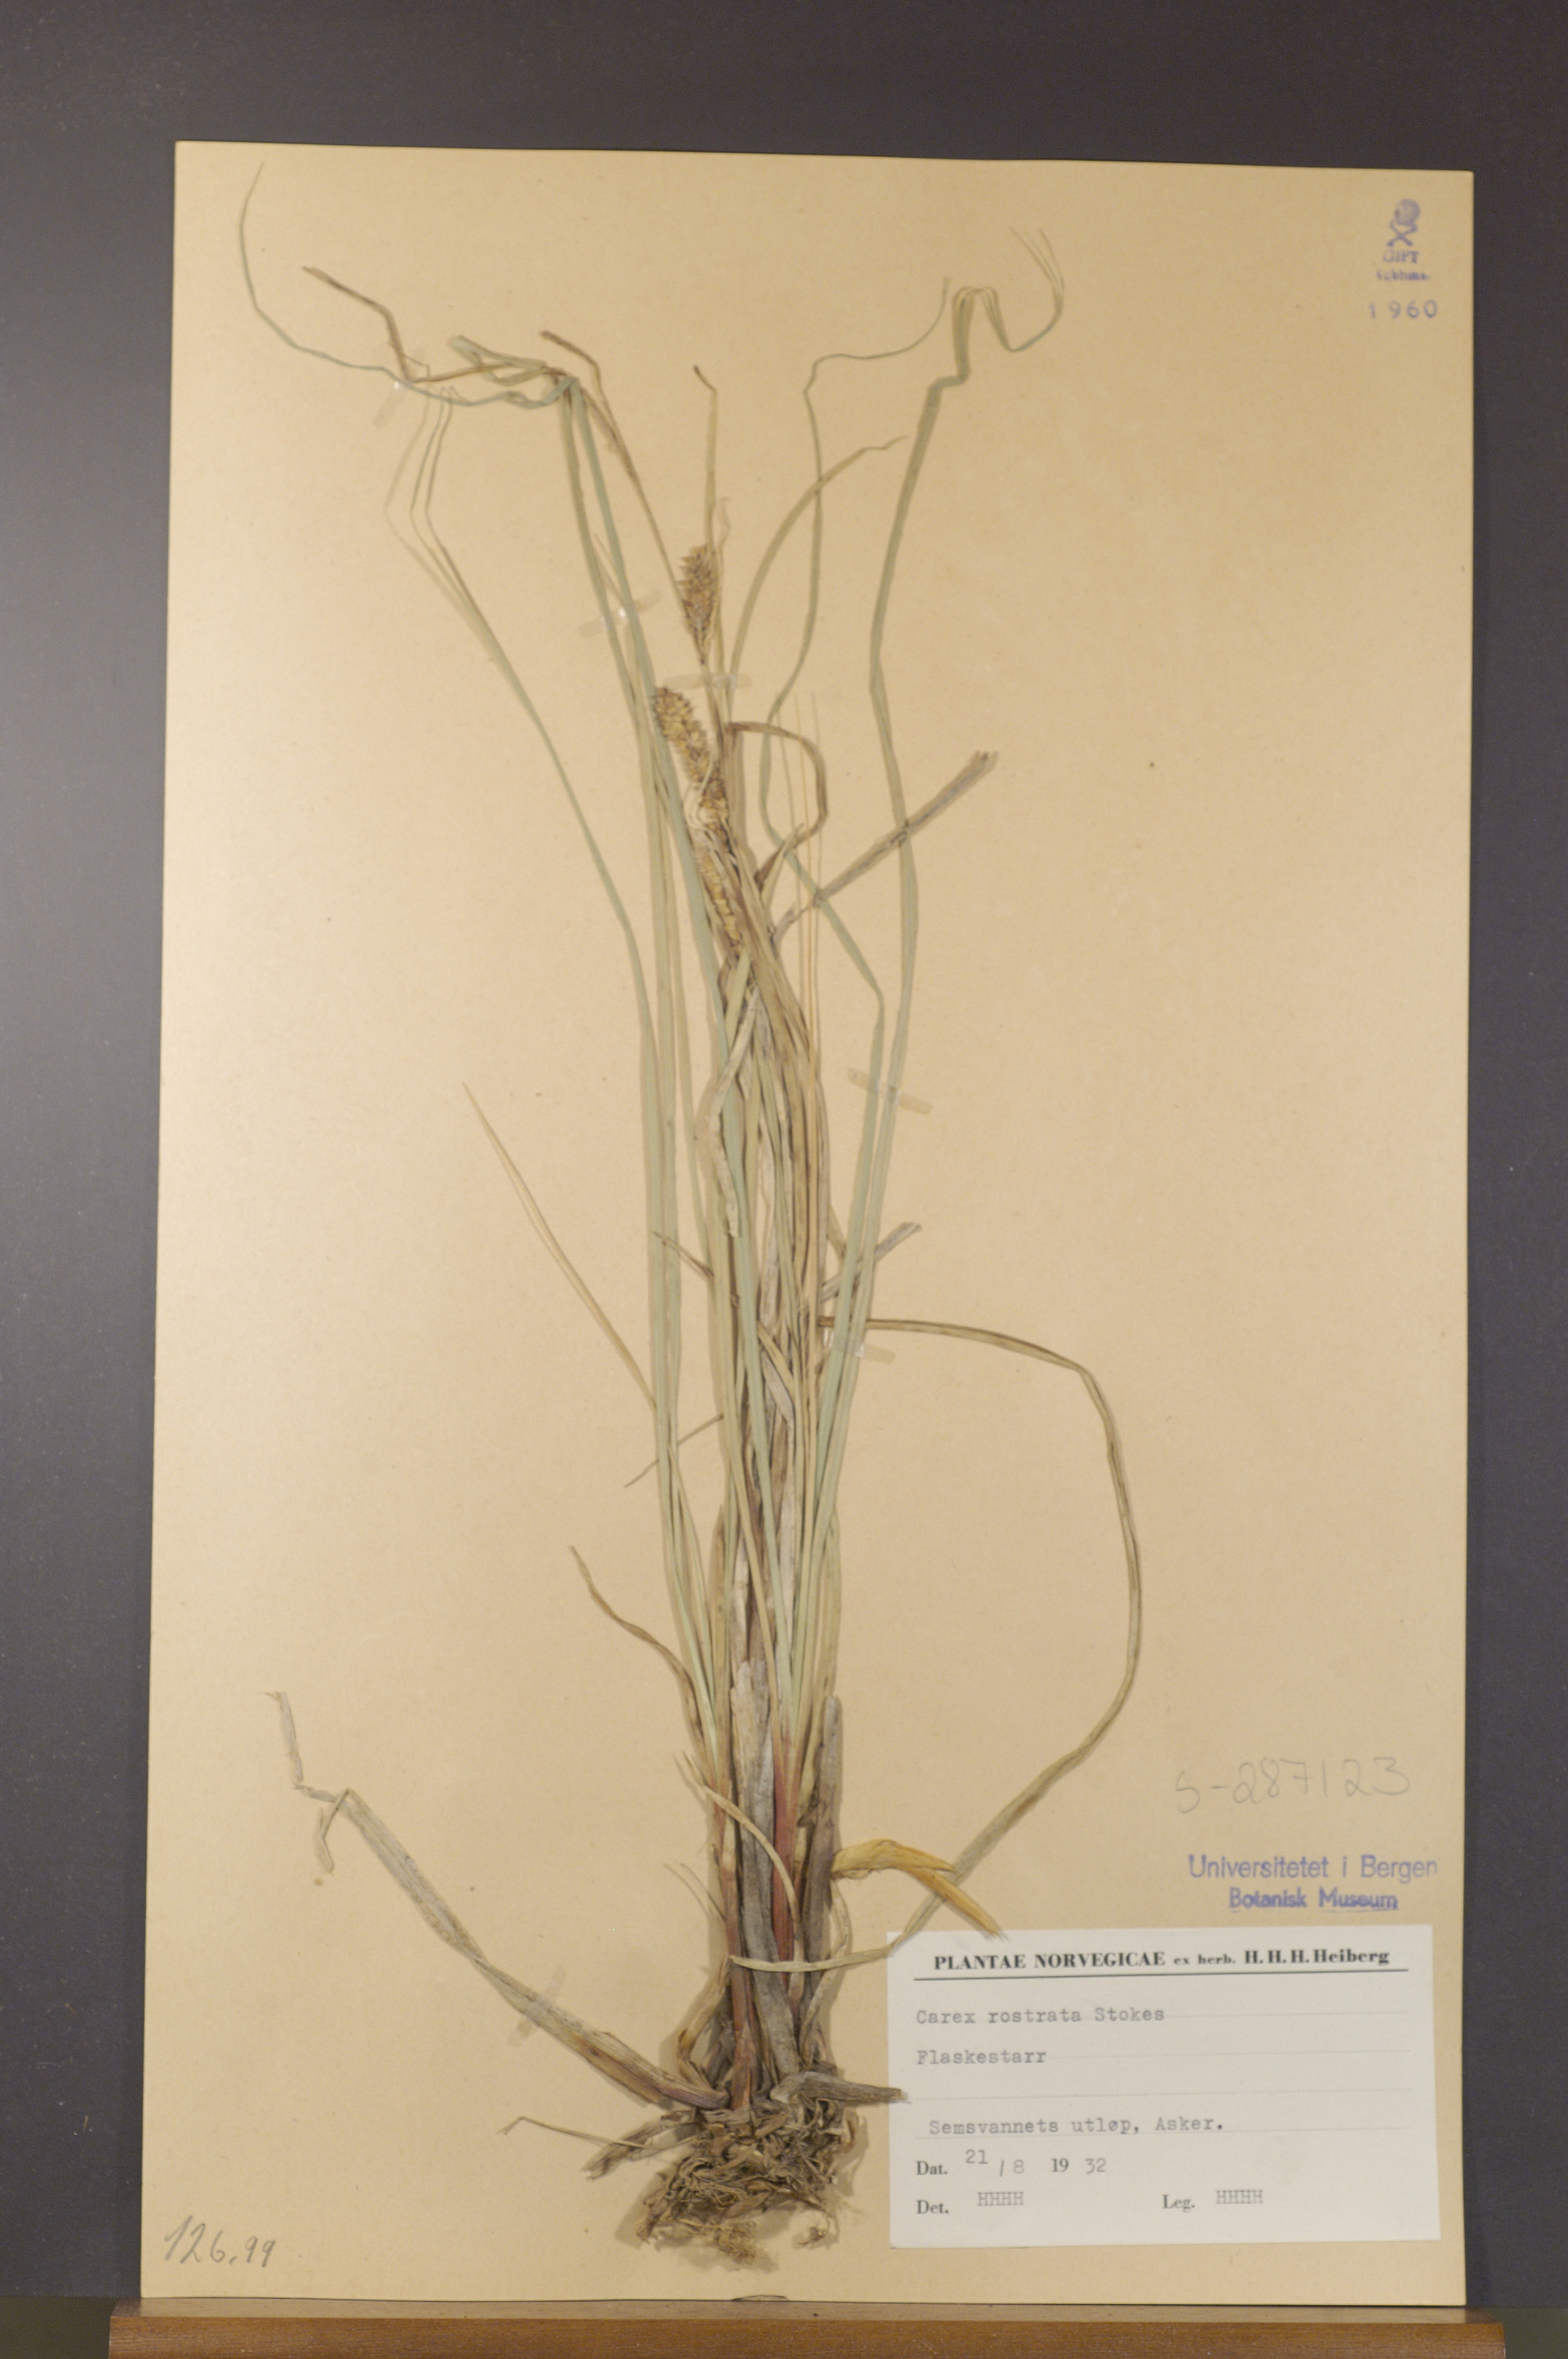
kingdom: Plantae
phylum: Tracheophyta
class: Liliopsida
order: Poales
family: Cyperaceae
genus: Carex
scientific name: Carex rostrata
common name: Bottle sedge
